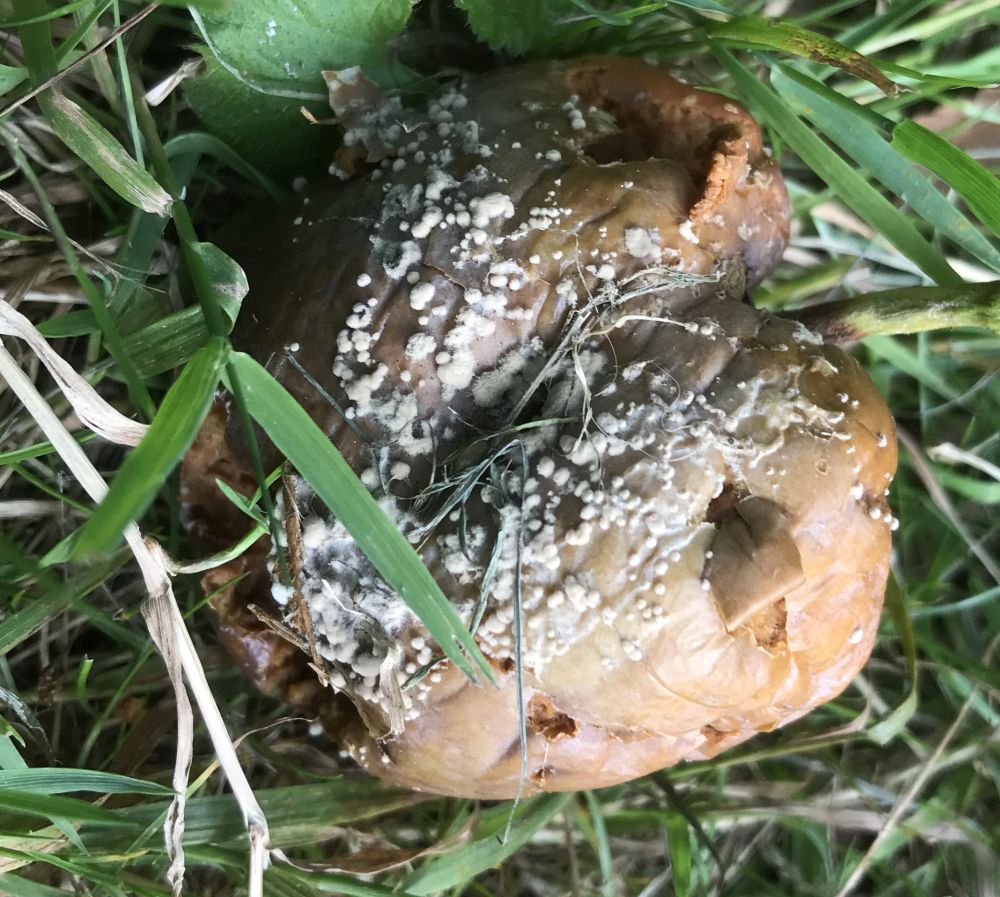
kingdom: Fungi
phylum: Ascomycota
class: Leotiomycetes
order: Helotiales
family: Sclerotiniaceae
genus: Monilinia
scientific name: Monilinia fructigena
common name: æble-knoldskive
